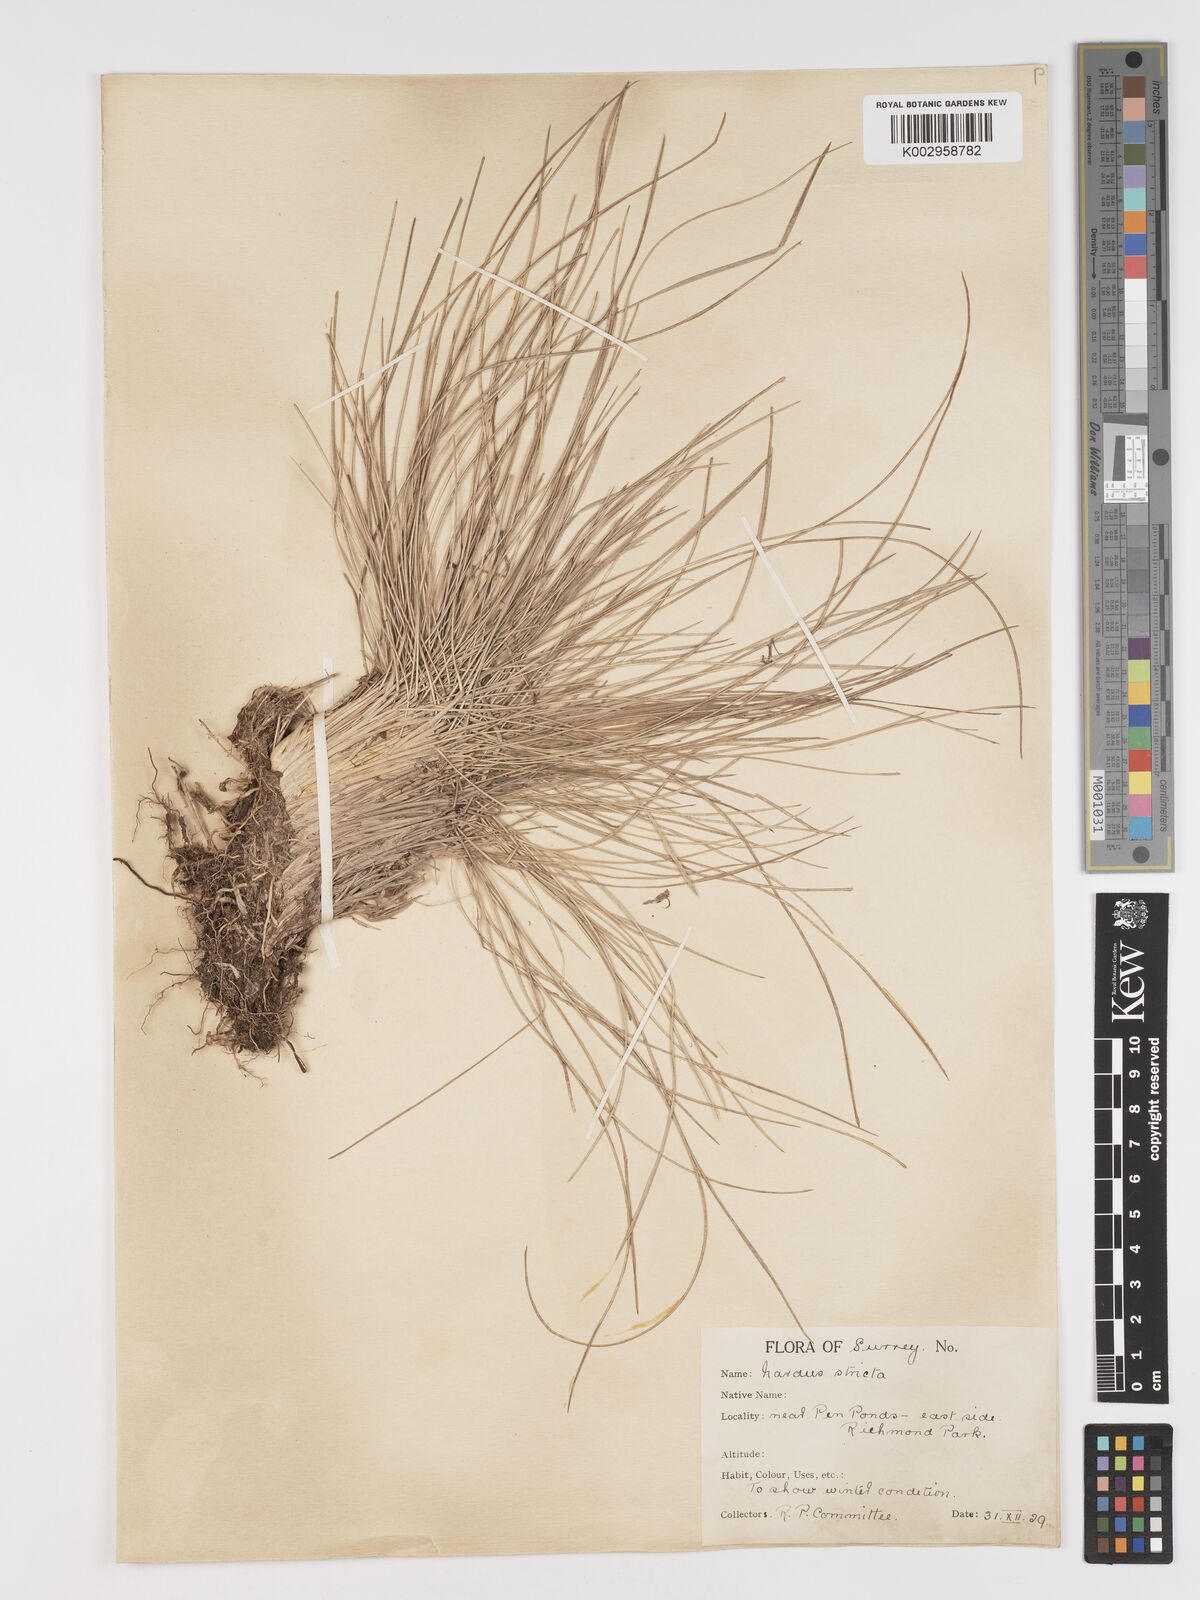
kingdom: Plantae
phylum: Tracheophyta
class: Liliopsida
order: Poales
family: Poaceae
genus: Nardus
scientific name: Nardus stricta
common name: Mat-grass
